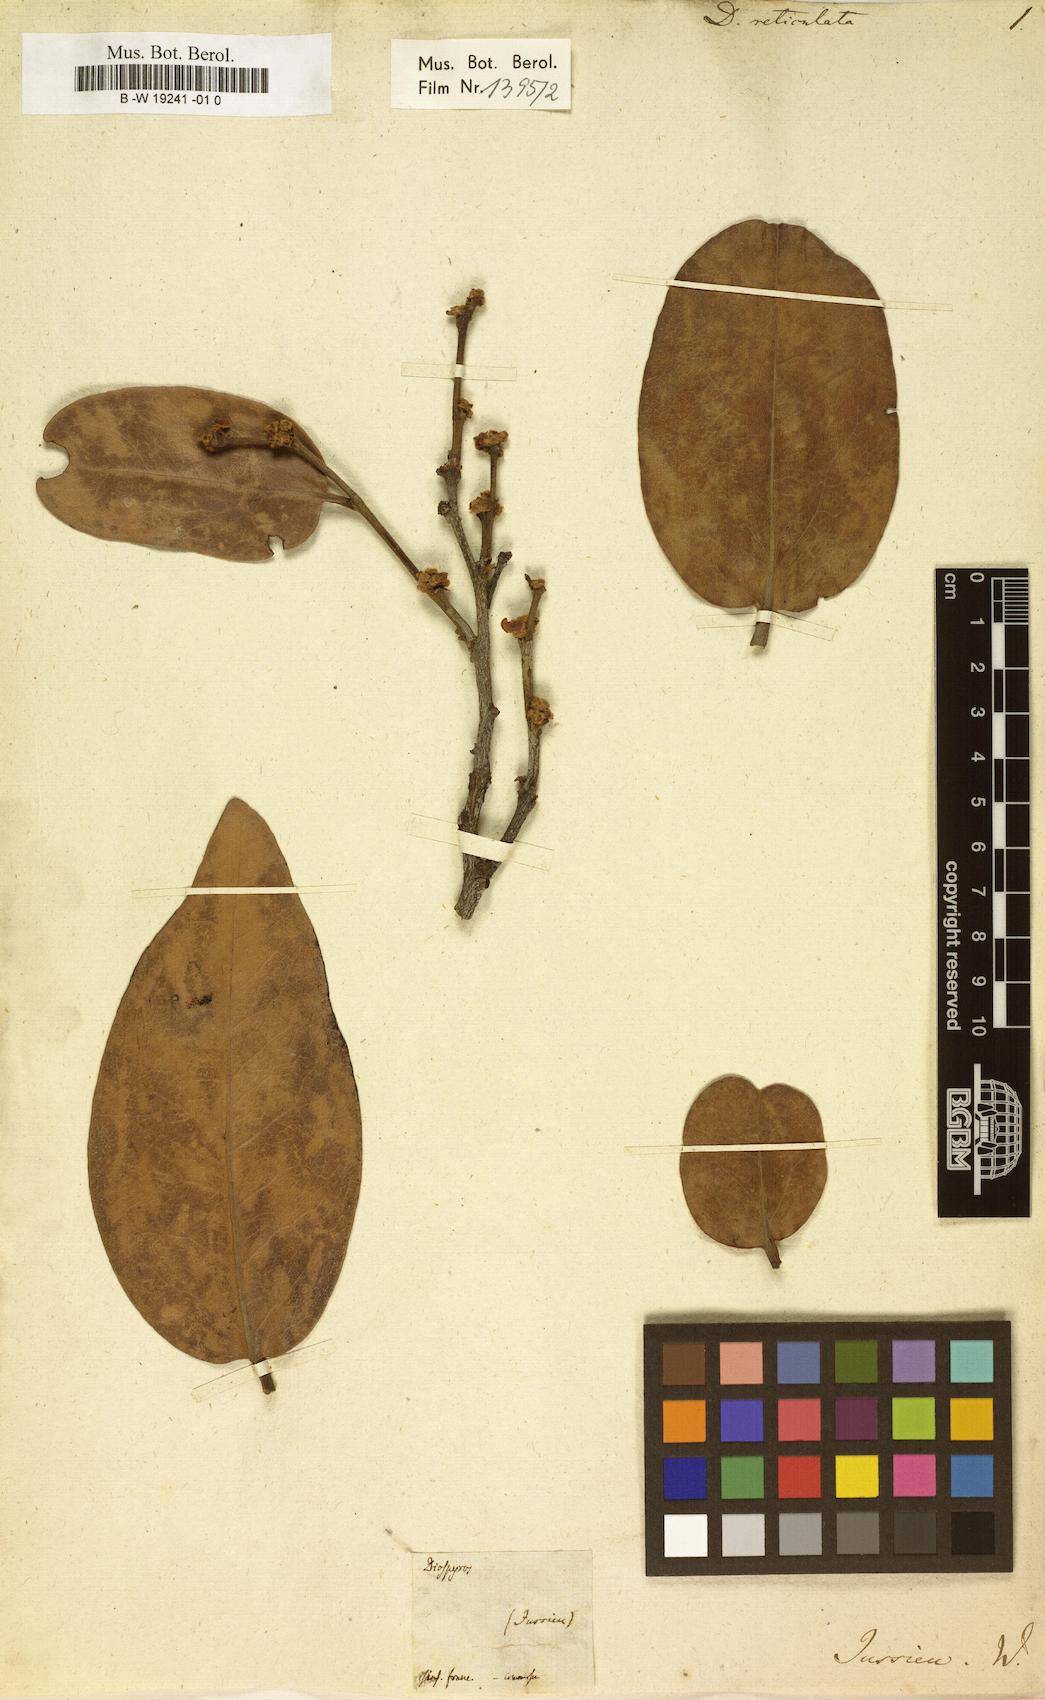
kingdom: Plantae
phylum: Tracheophyta
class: Magnoliopsida
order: Ericales
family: Ebenaceae
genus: Diospyros
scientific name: Diospyros reticulata
